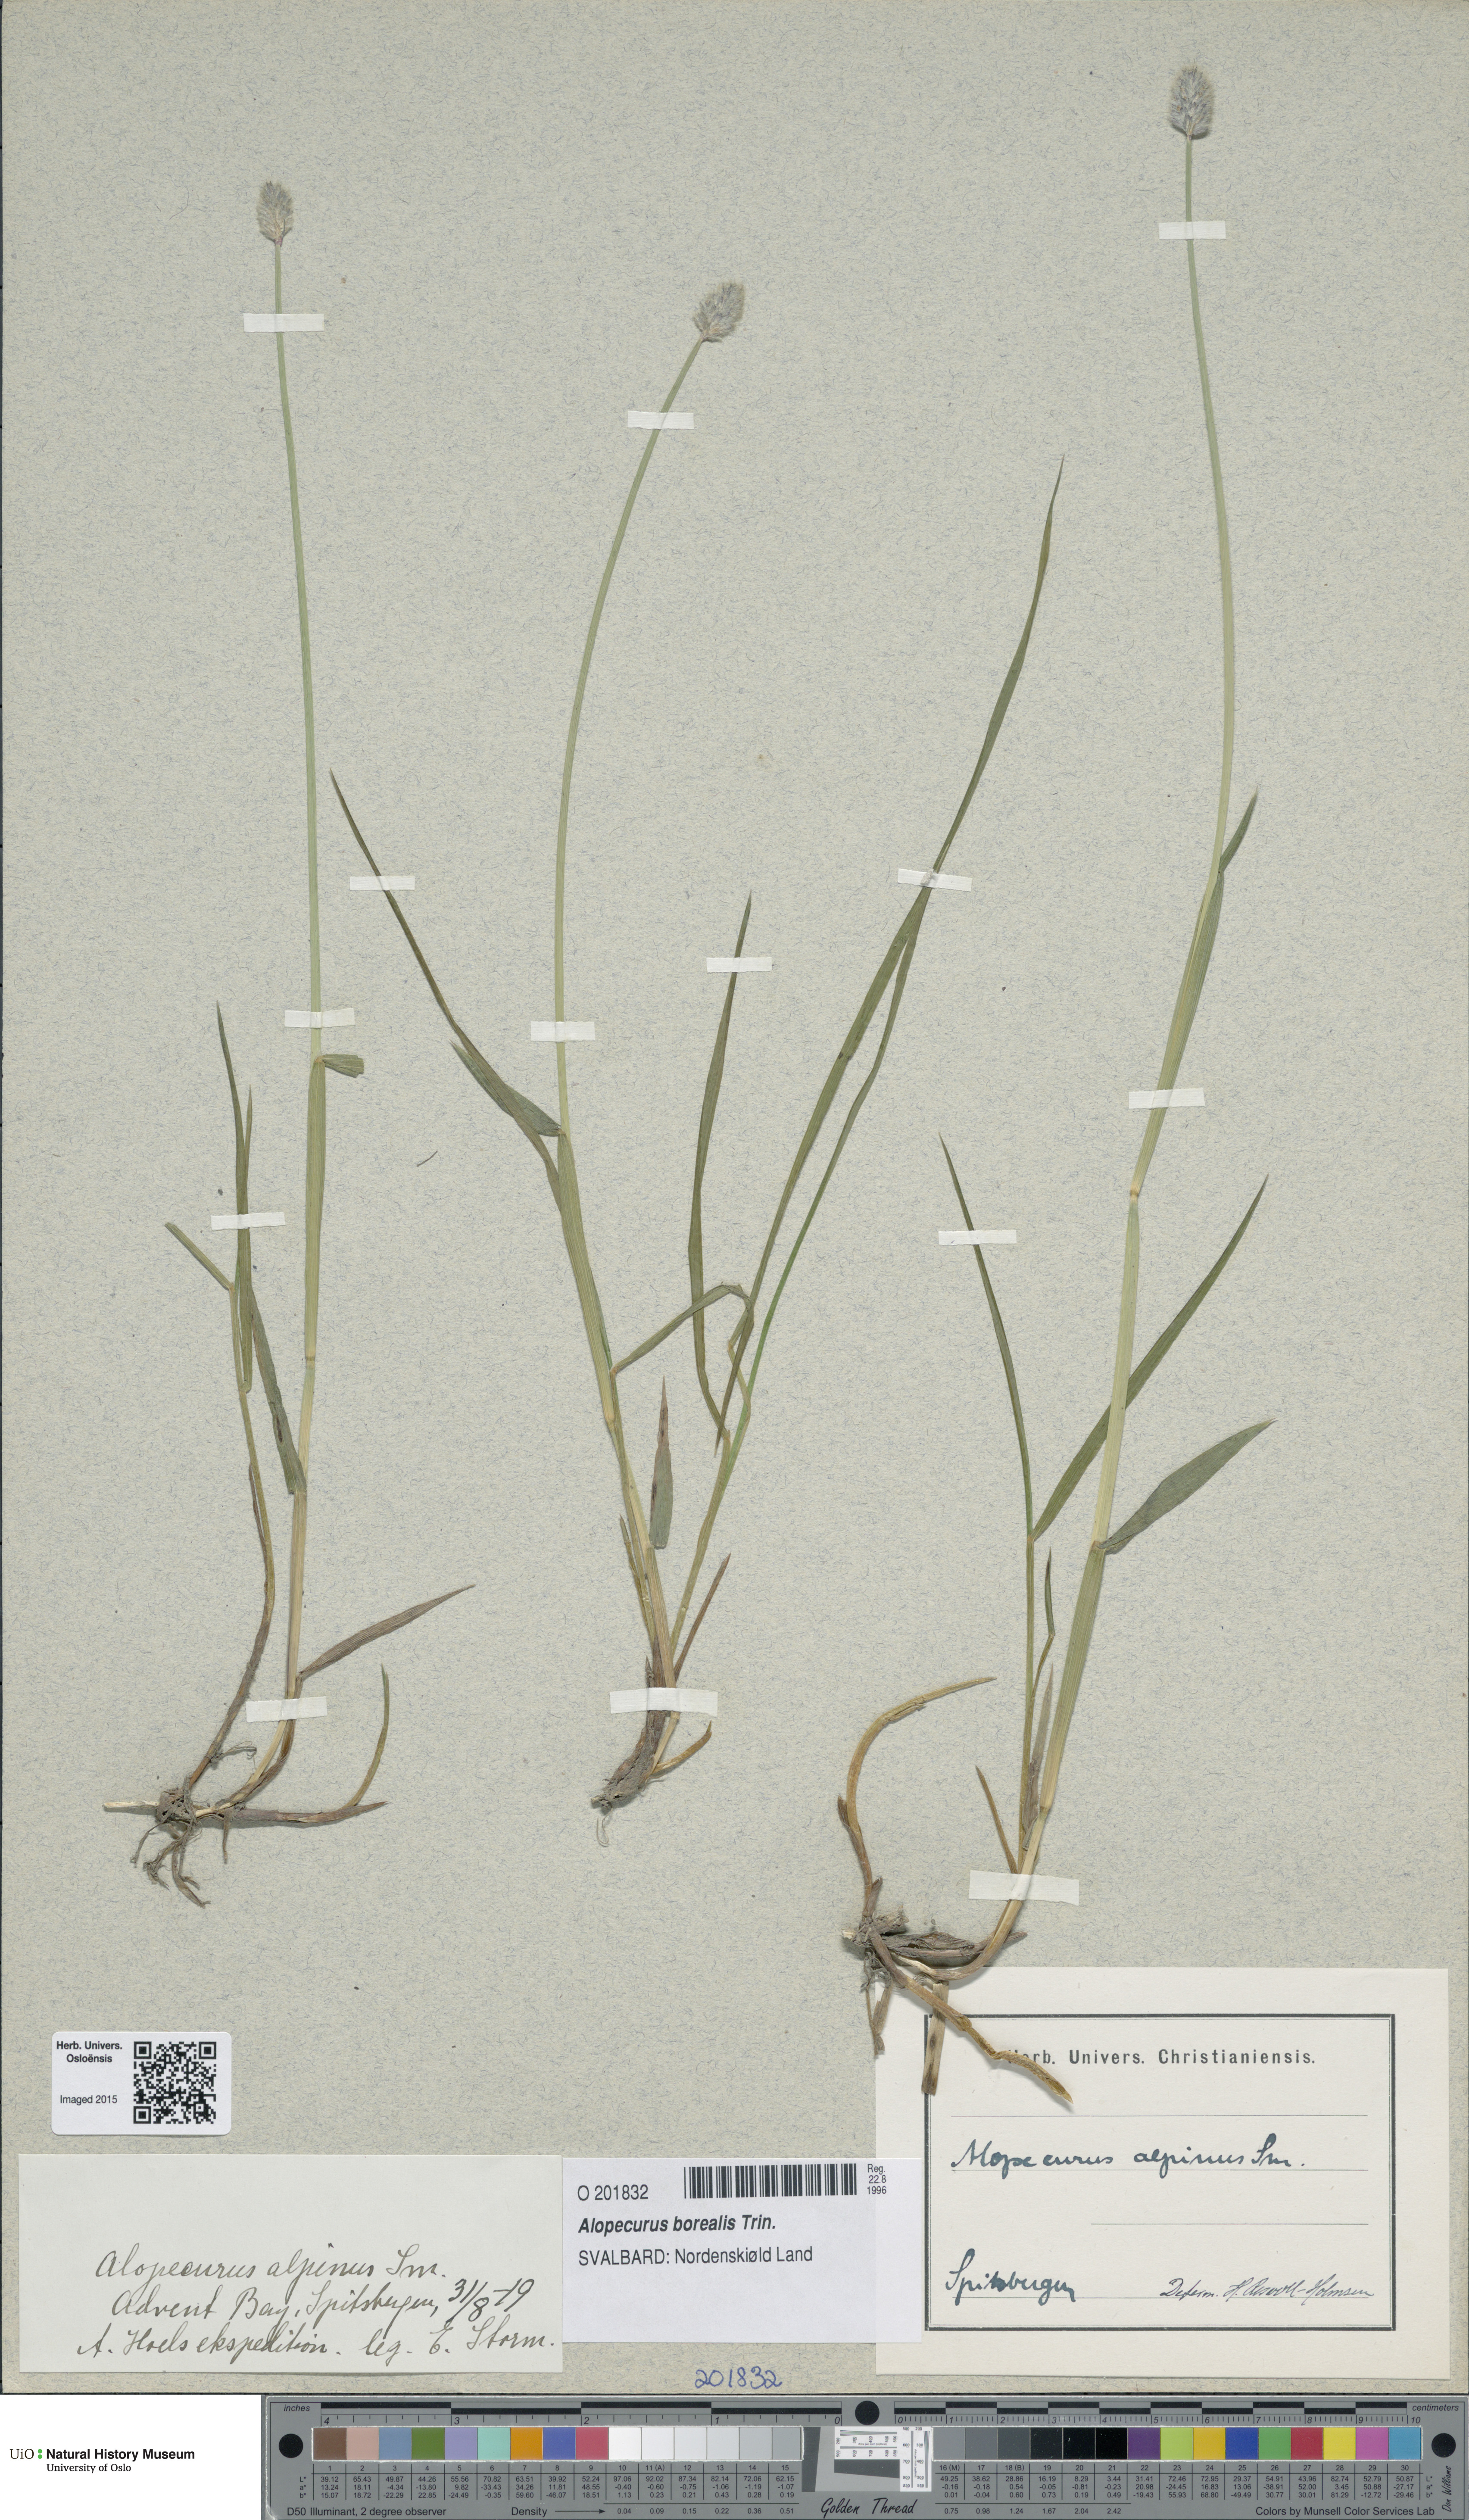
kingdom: Plantae
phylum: Tracheophyta
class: Liliopsida
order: Poales
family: Poaceae
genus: Alopecurus
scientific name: Alopecurus magellanicus
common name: Alpine foxtail
